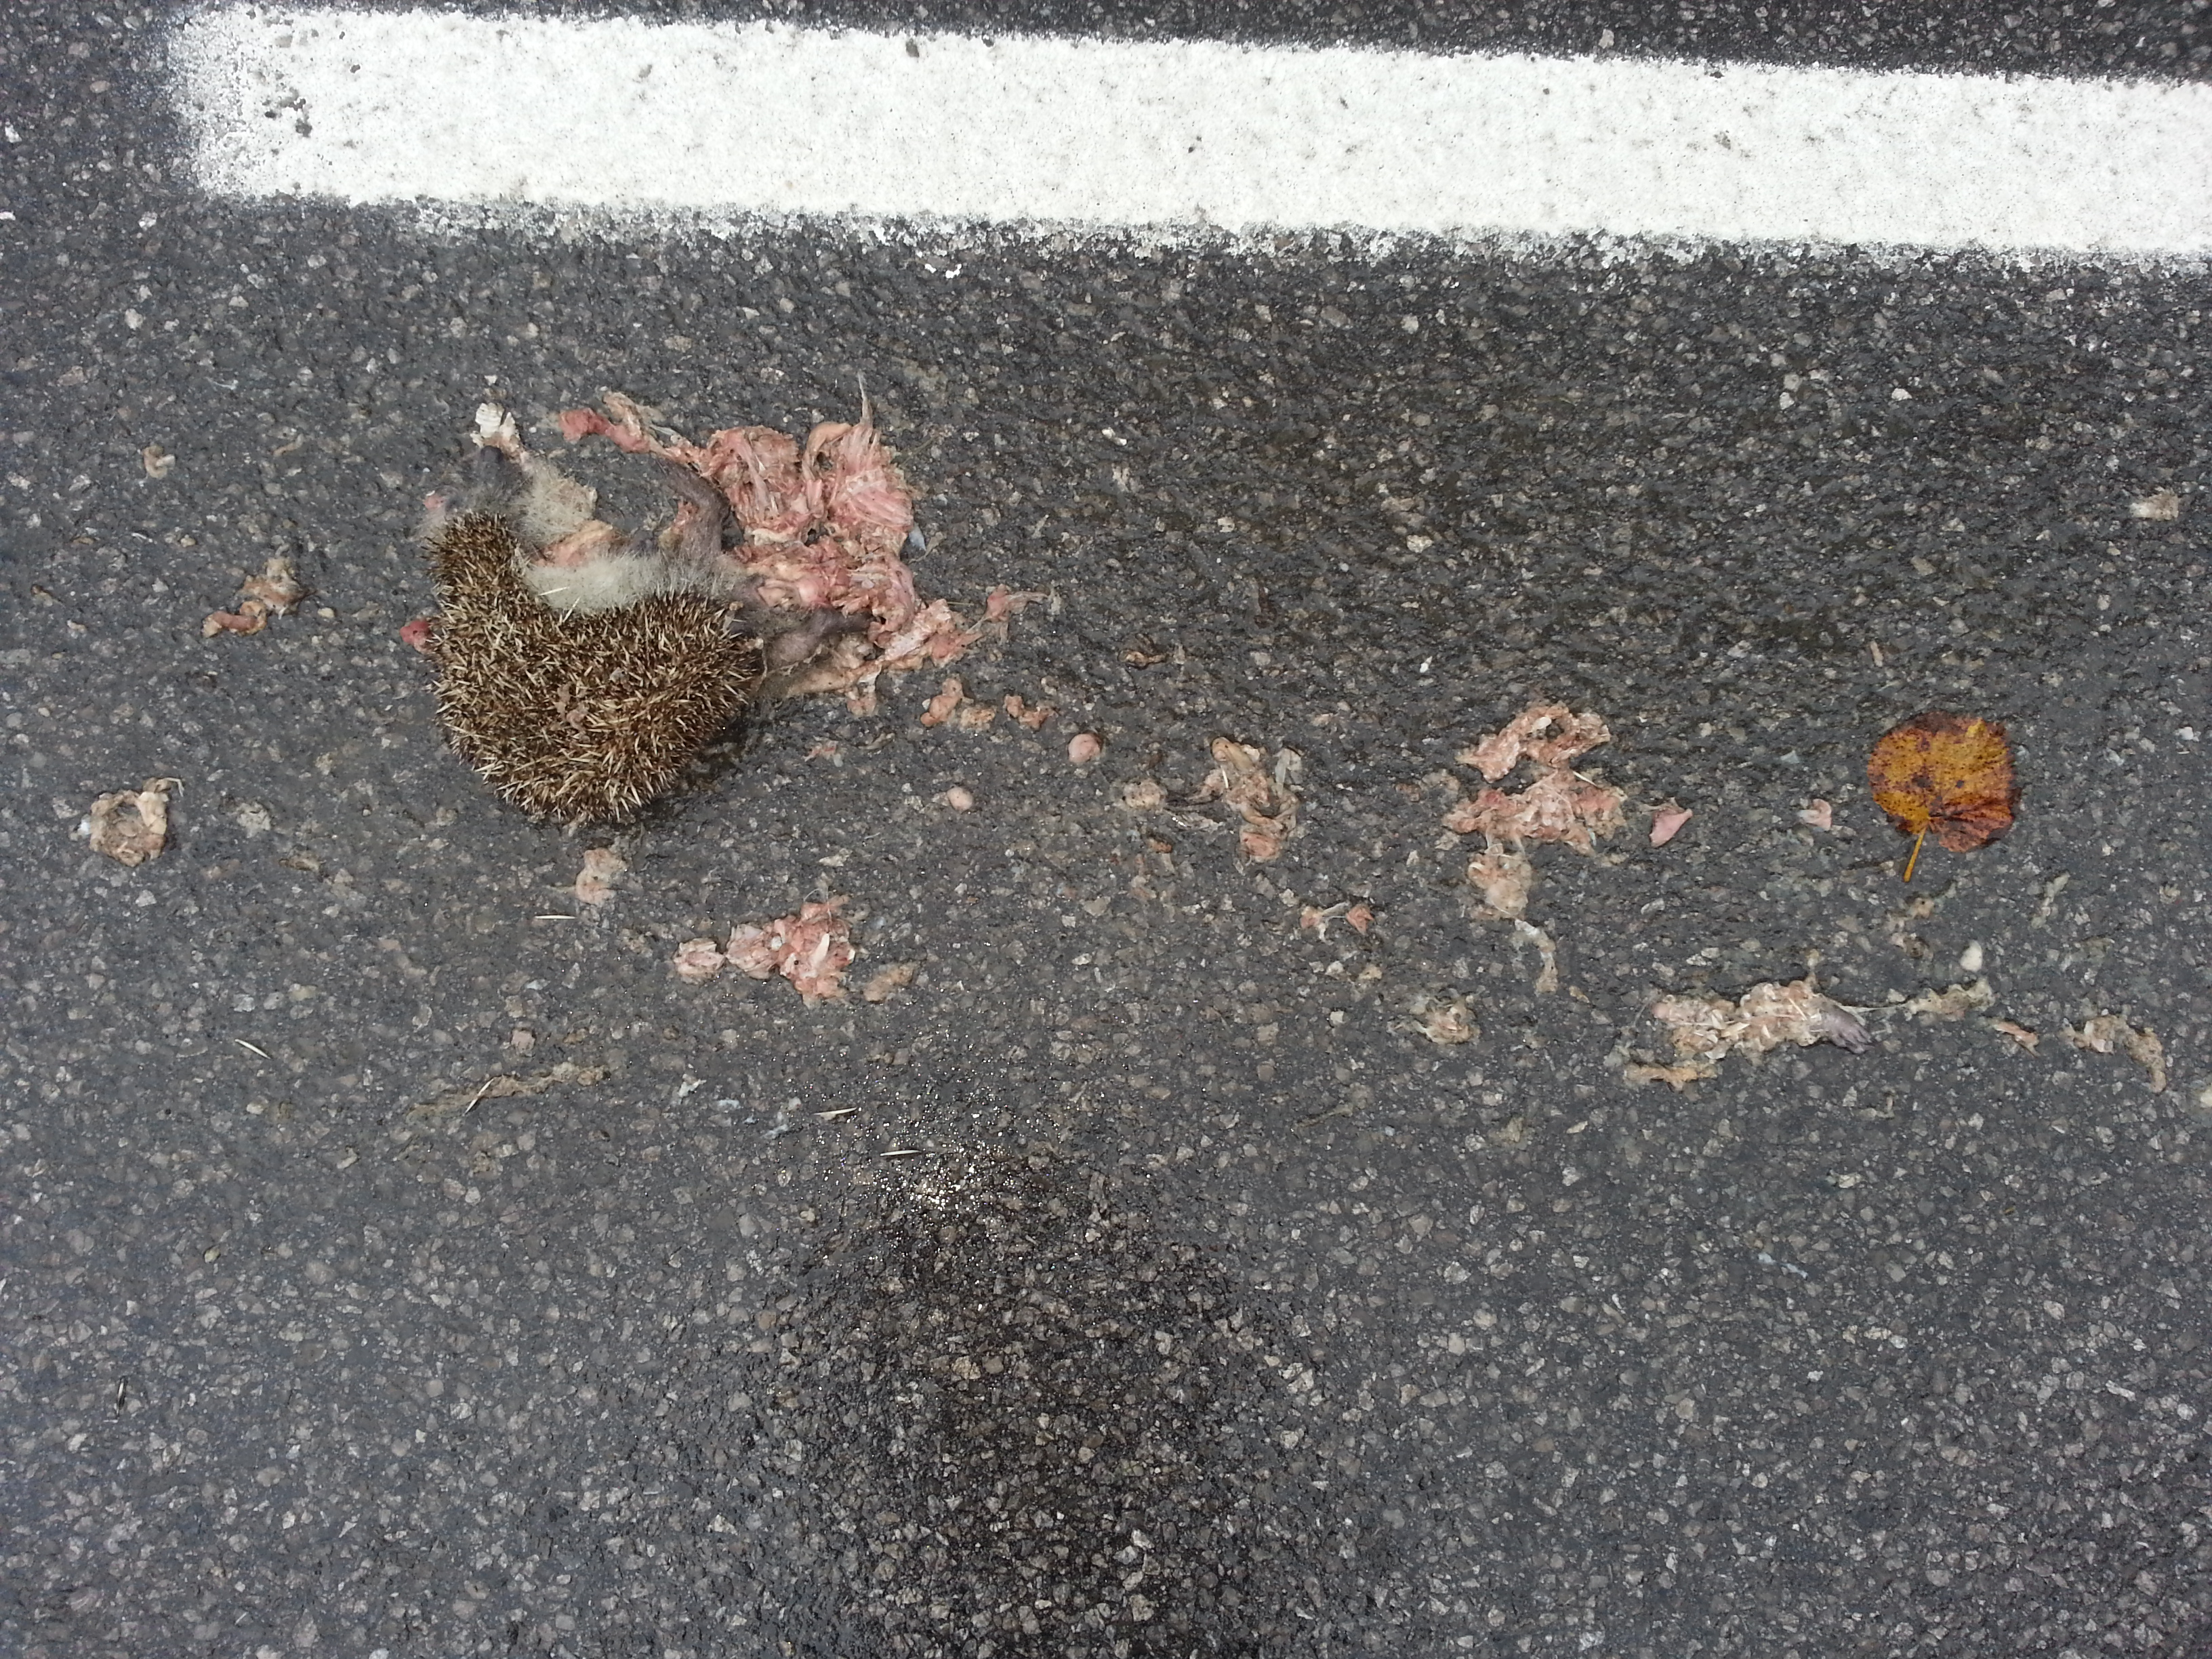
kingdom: Animalia
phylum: Chordata
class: Mammalia
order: Erinaceomorpha
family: Erinaceidae
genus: Erinaceus
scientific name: Erinaceus
